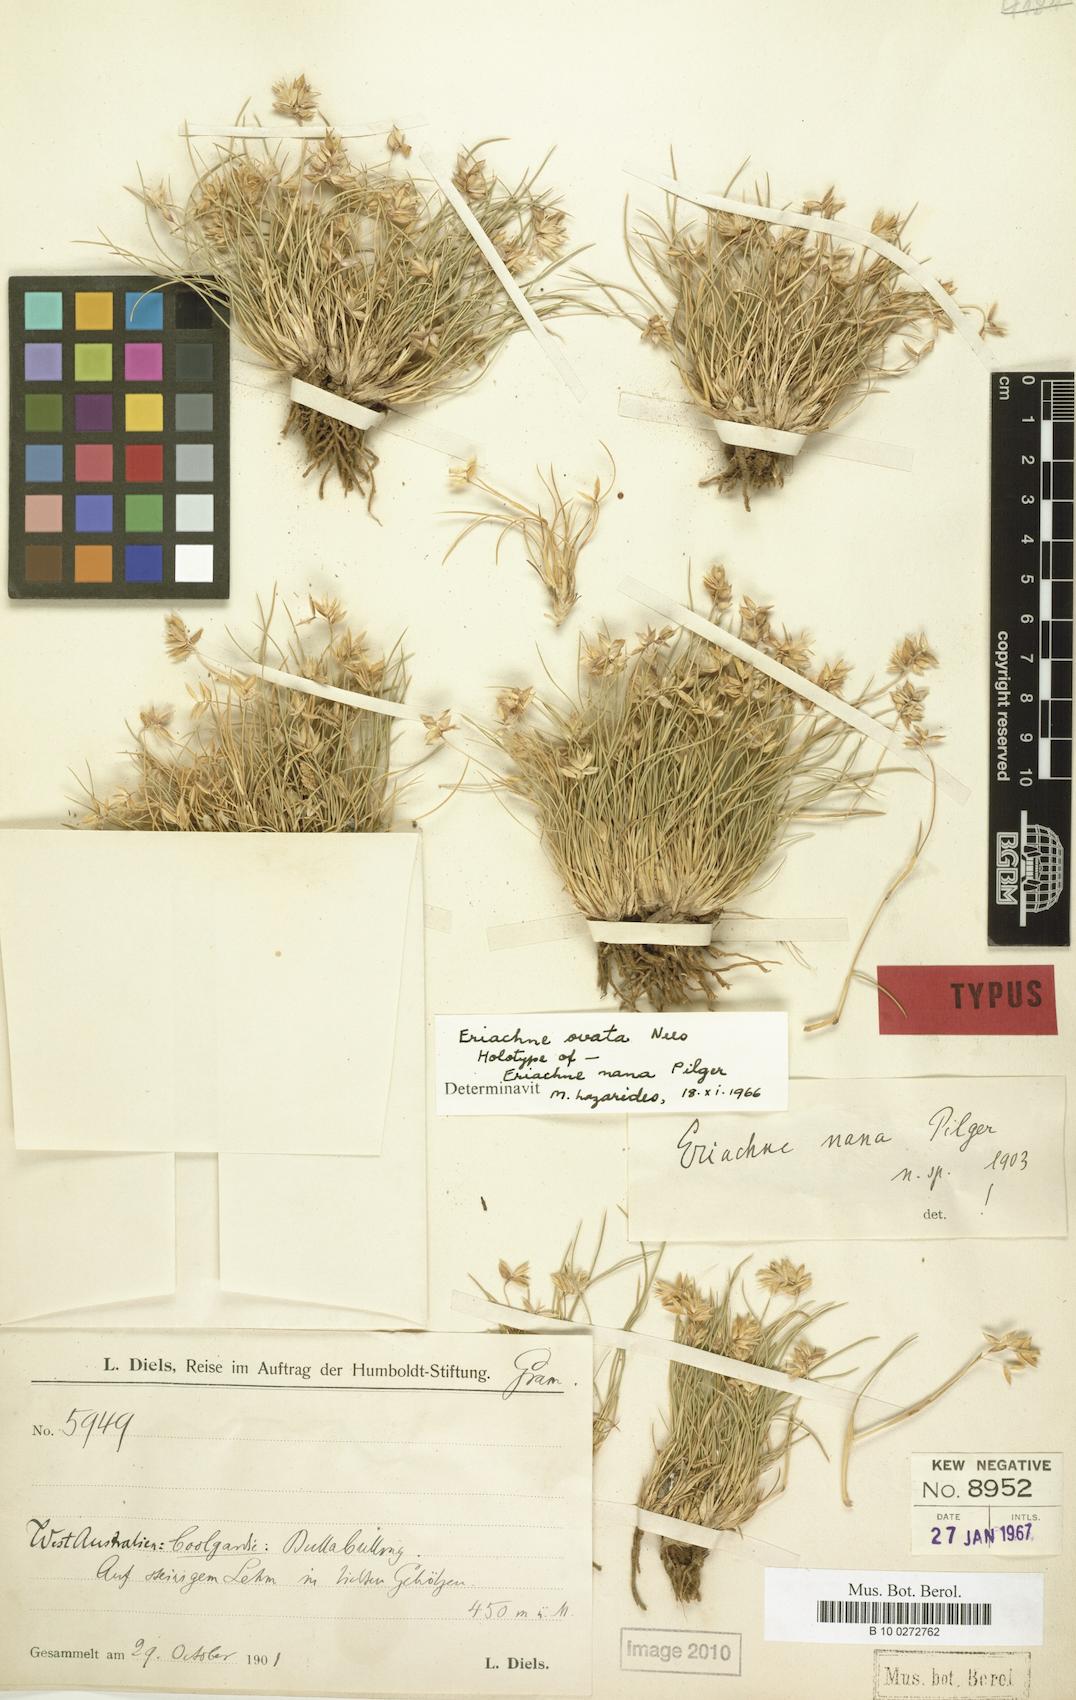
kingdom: Plantae
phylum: Tracheophyta
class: Liliopsida
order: Poales
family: Poaceae
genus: Eriachne
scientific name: Eriachne ovata
